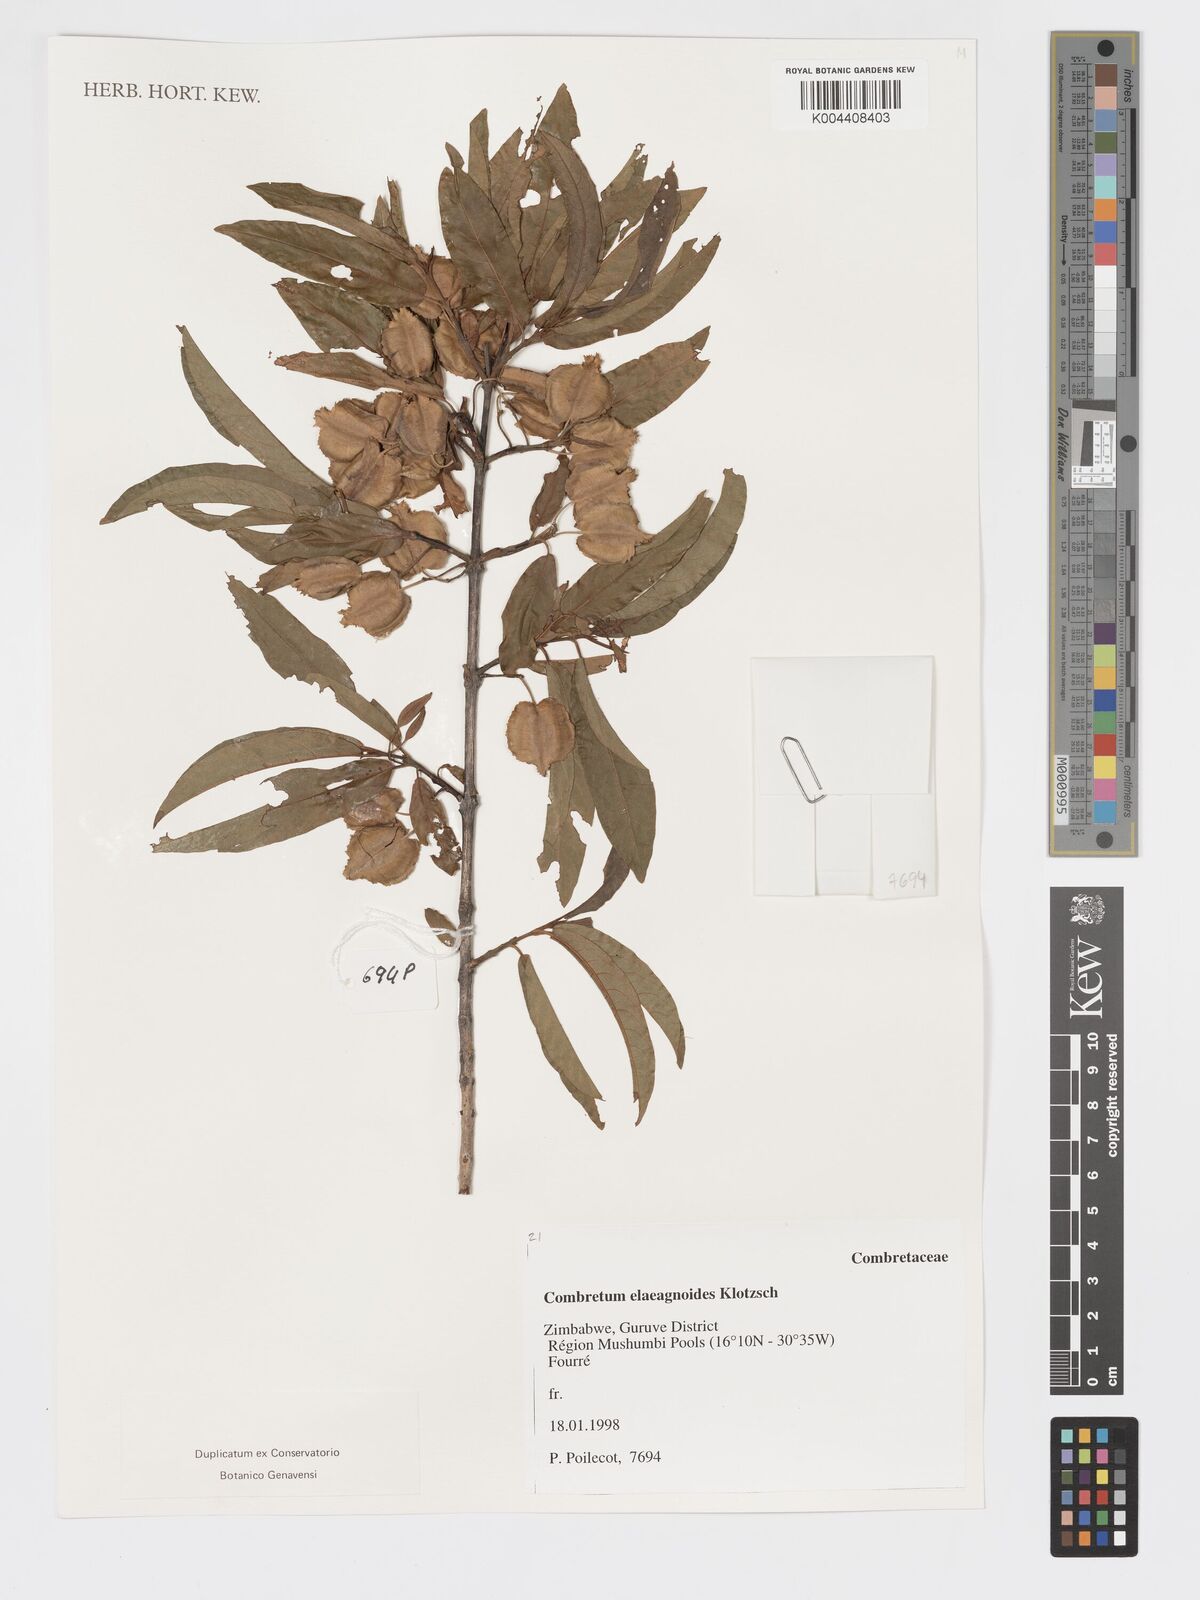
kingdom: Plantae
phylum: Tracheophyta
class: Magnoliopsida
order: Myrtales
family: Combretaceae
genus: Combretum
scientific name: Combretum elaeagnoides
